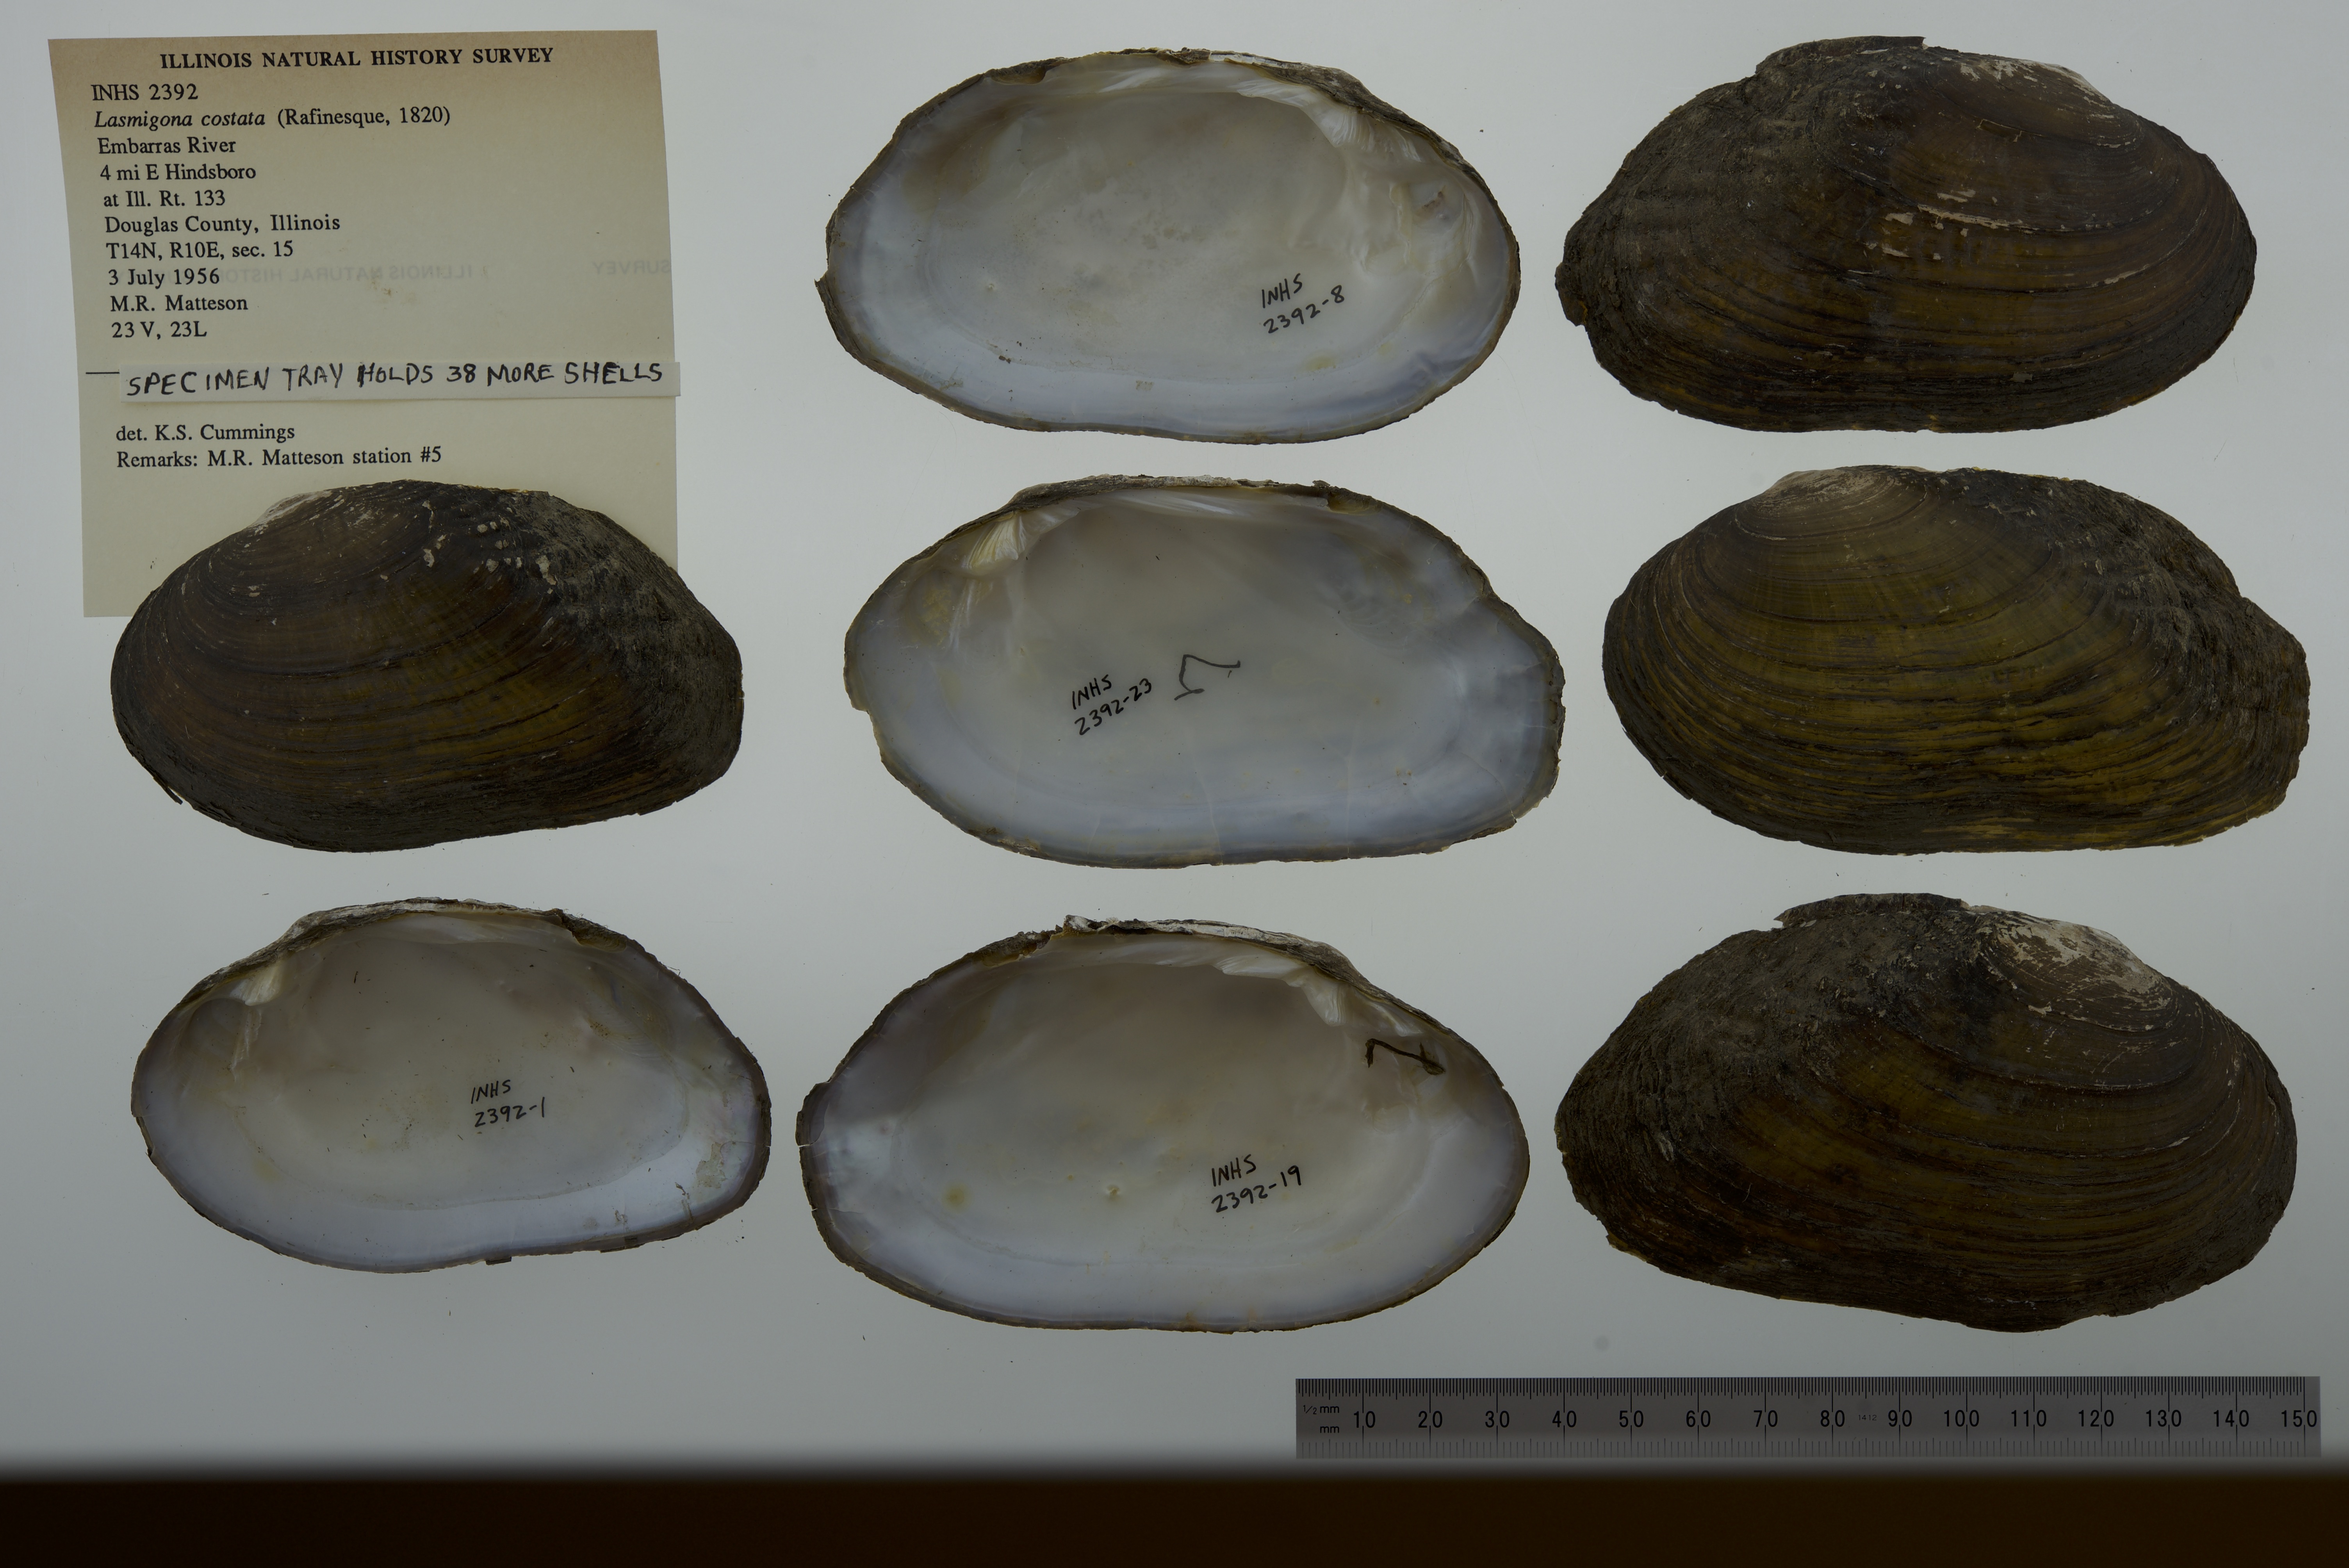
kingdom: Animalia
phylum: Mollusca
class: Bivalvia
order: Unionida
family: Unionidae
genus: Lasmigona
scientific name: Lasmigona costata
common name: Flutedshell
